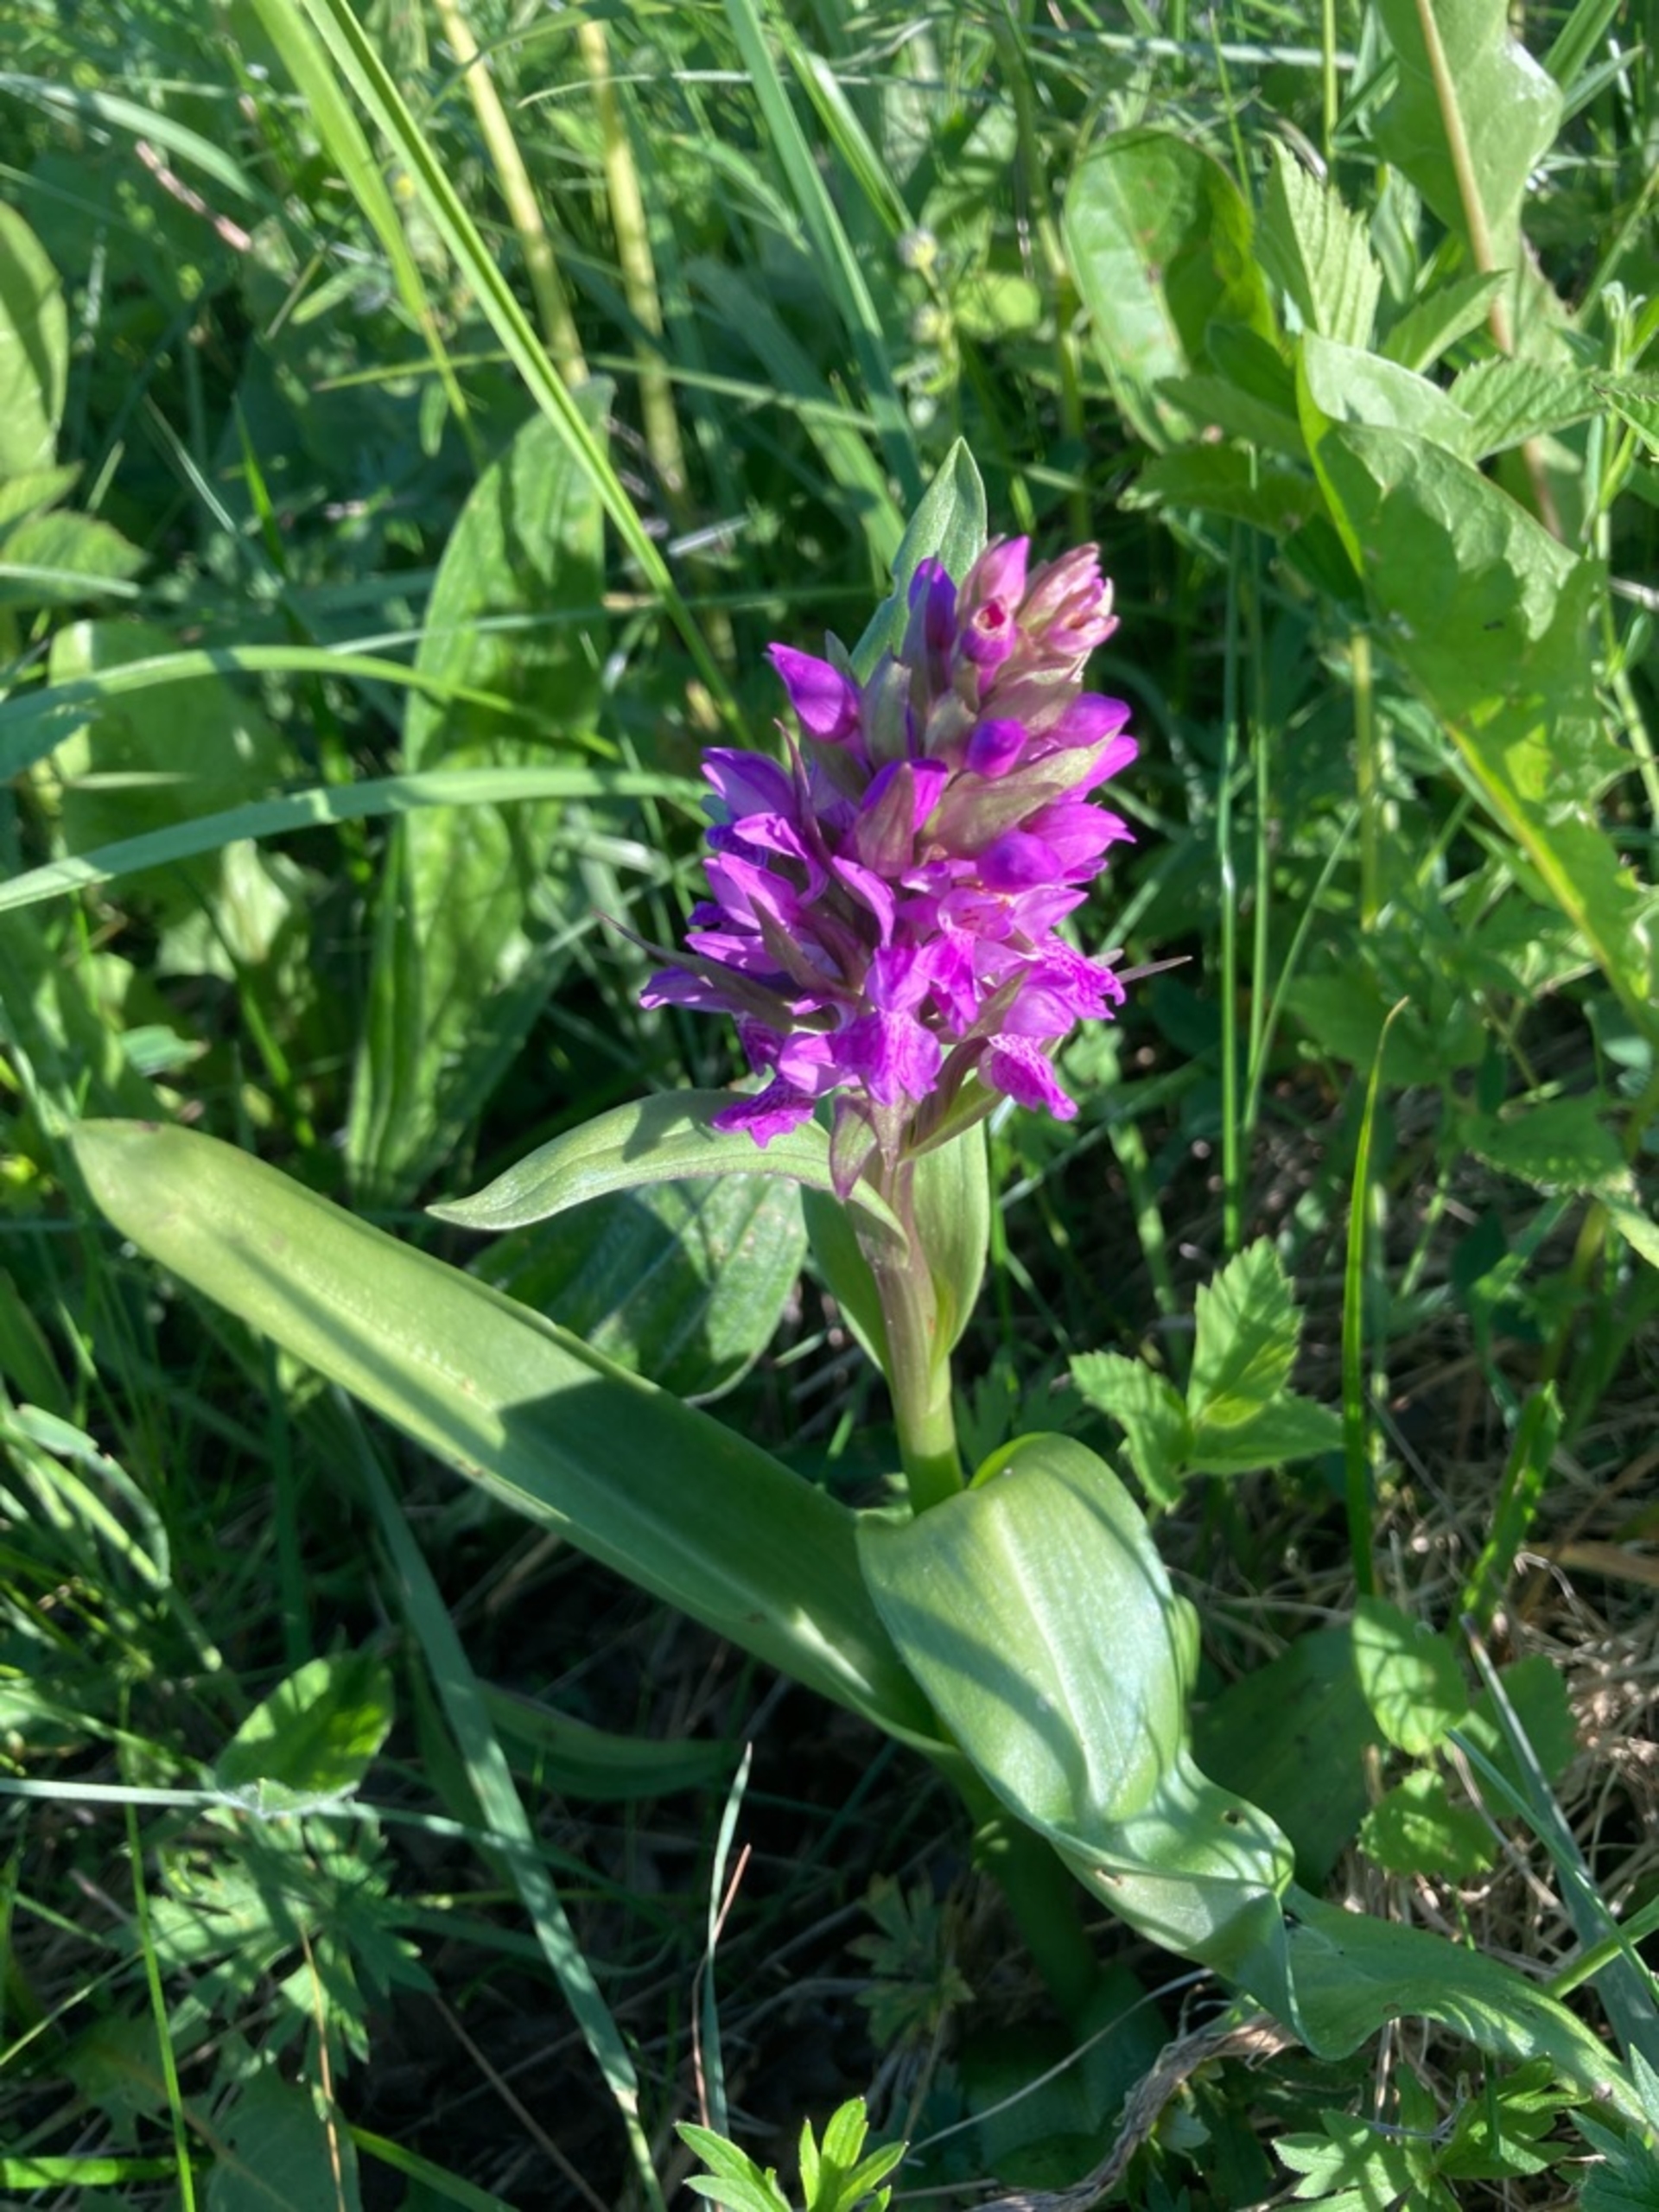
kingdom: Plantae
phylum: Tracheophyta
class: Liliopsida
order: Asparagales
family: Orchidaceae
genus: Dactylorhiza
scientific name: Dactylorhiza majalis
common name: Maj-gøgeurt
